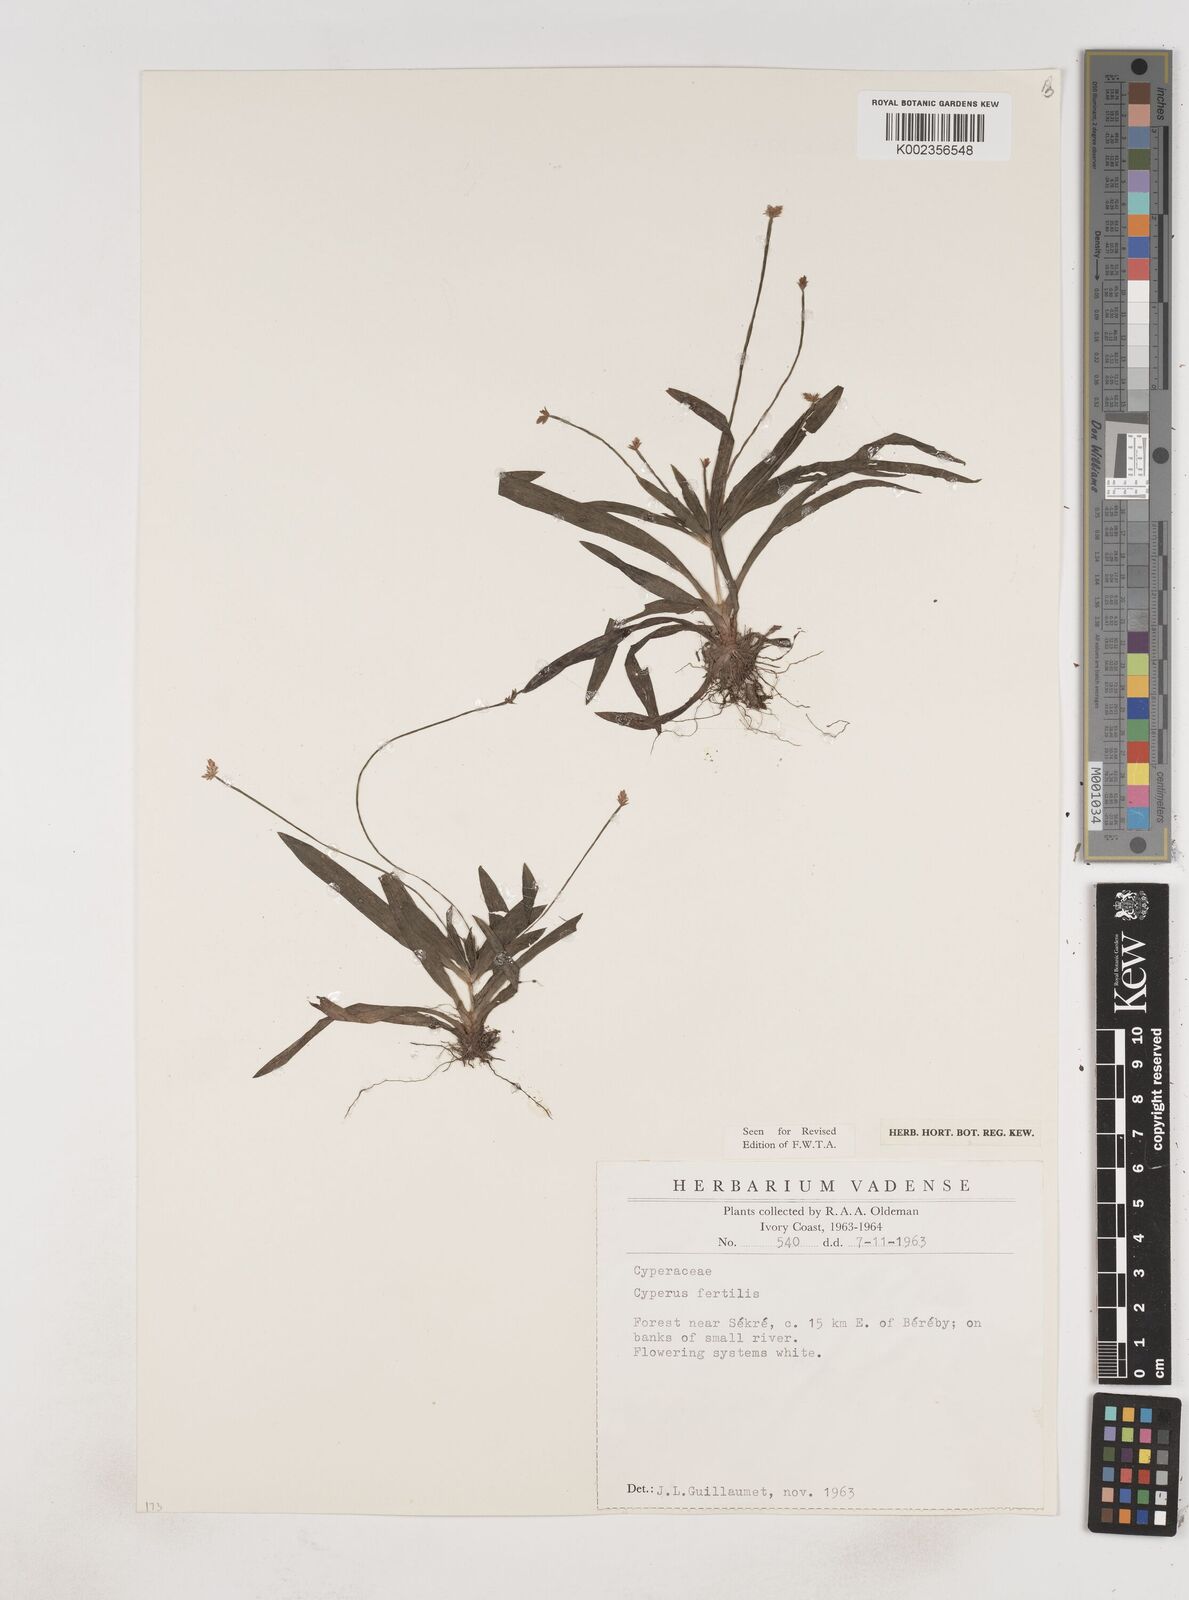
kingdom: Plantae
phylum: Tracheophyta
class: Liliopsida
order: Poales
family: Cyperaceae
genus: Cyperus
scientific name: Cyperus fertilis
